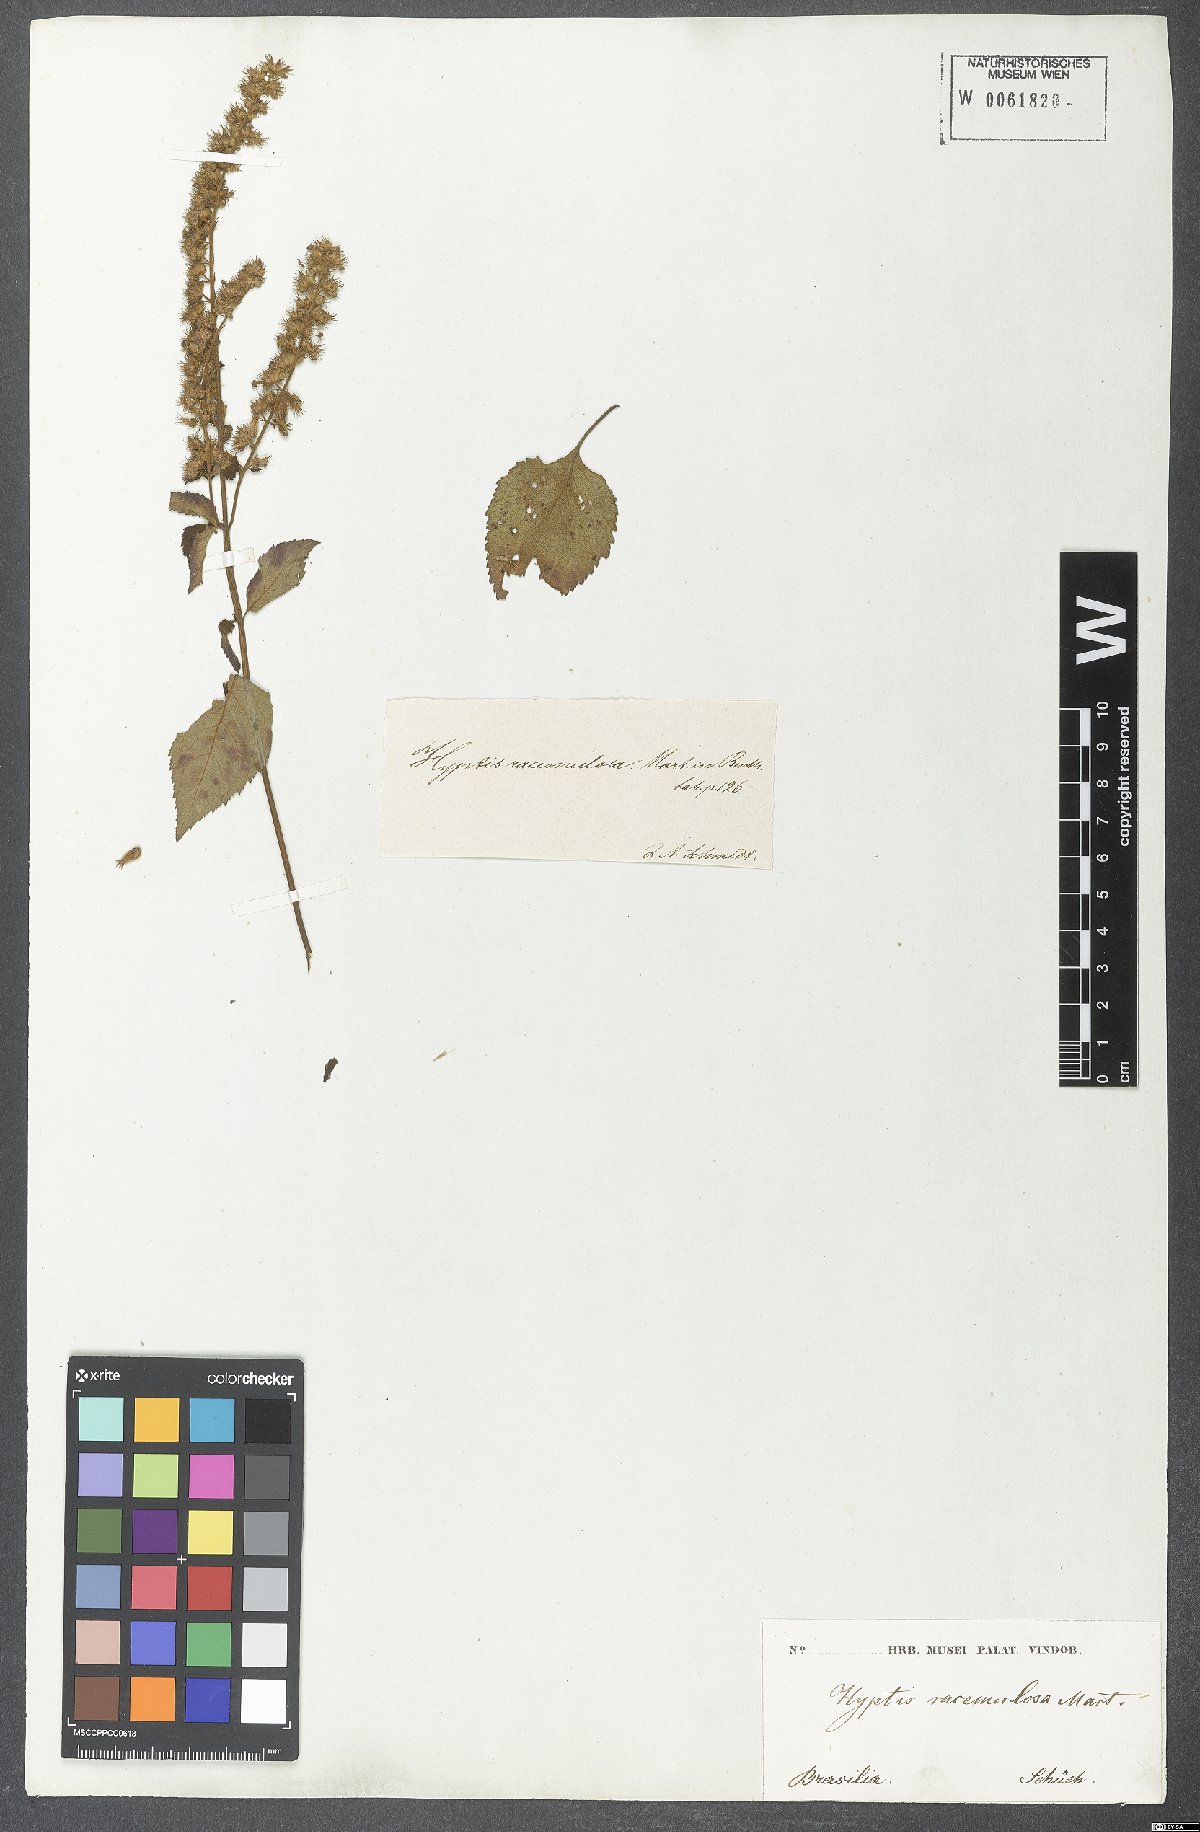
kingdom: Plantae
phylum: Tracheophyta
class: Magnoliopsida
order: Lamiales
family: Lamiaceae
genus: Cantinoa
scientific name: Cantinoa racemulosa
